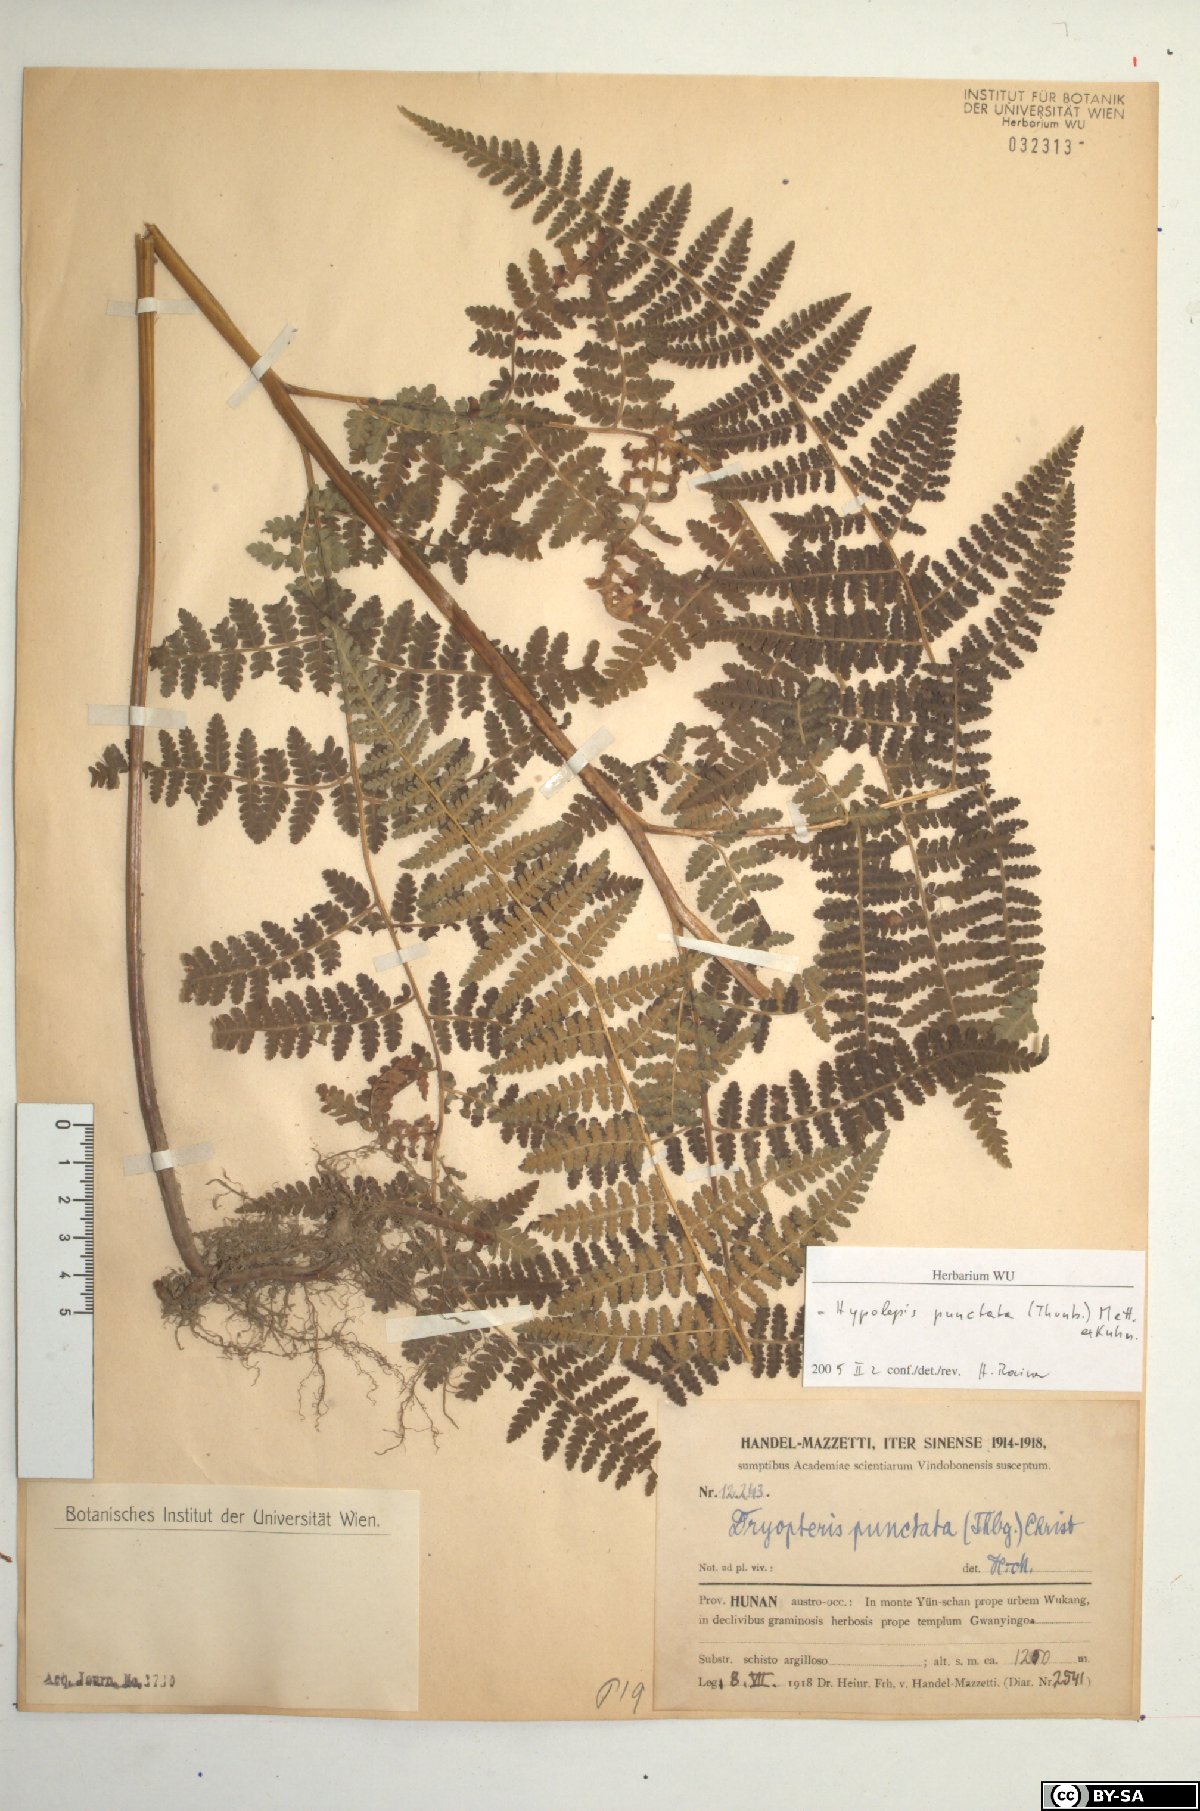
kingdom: Plantae
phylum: Tracheophyta
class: Polypodiopsida
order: Polypodiales
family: Dennstaedtiaceae
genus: Hypolepis
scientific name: Hypolepis punctata
